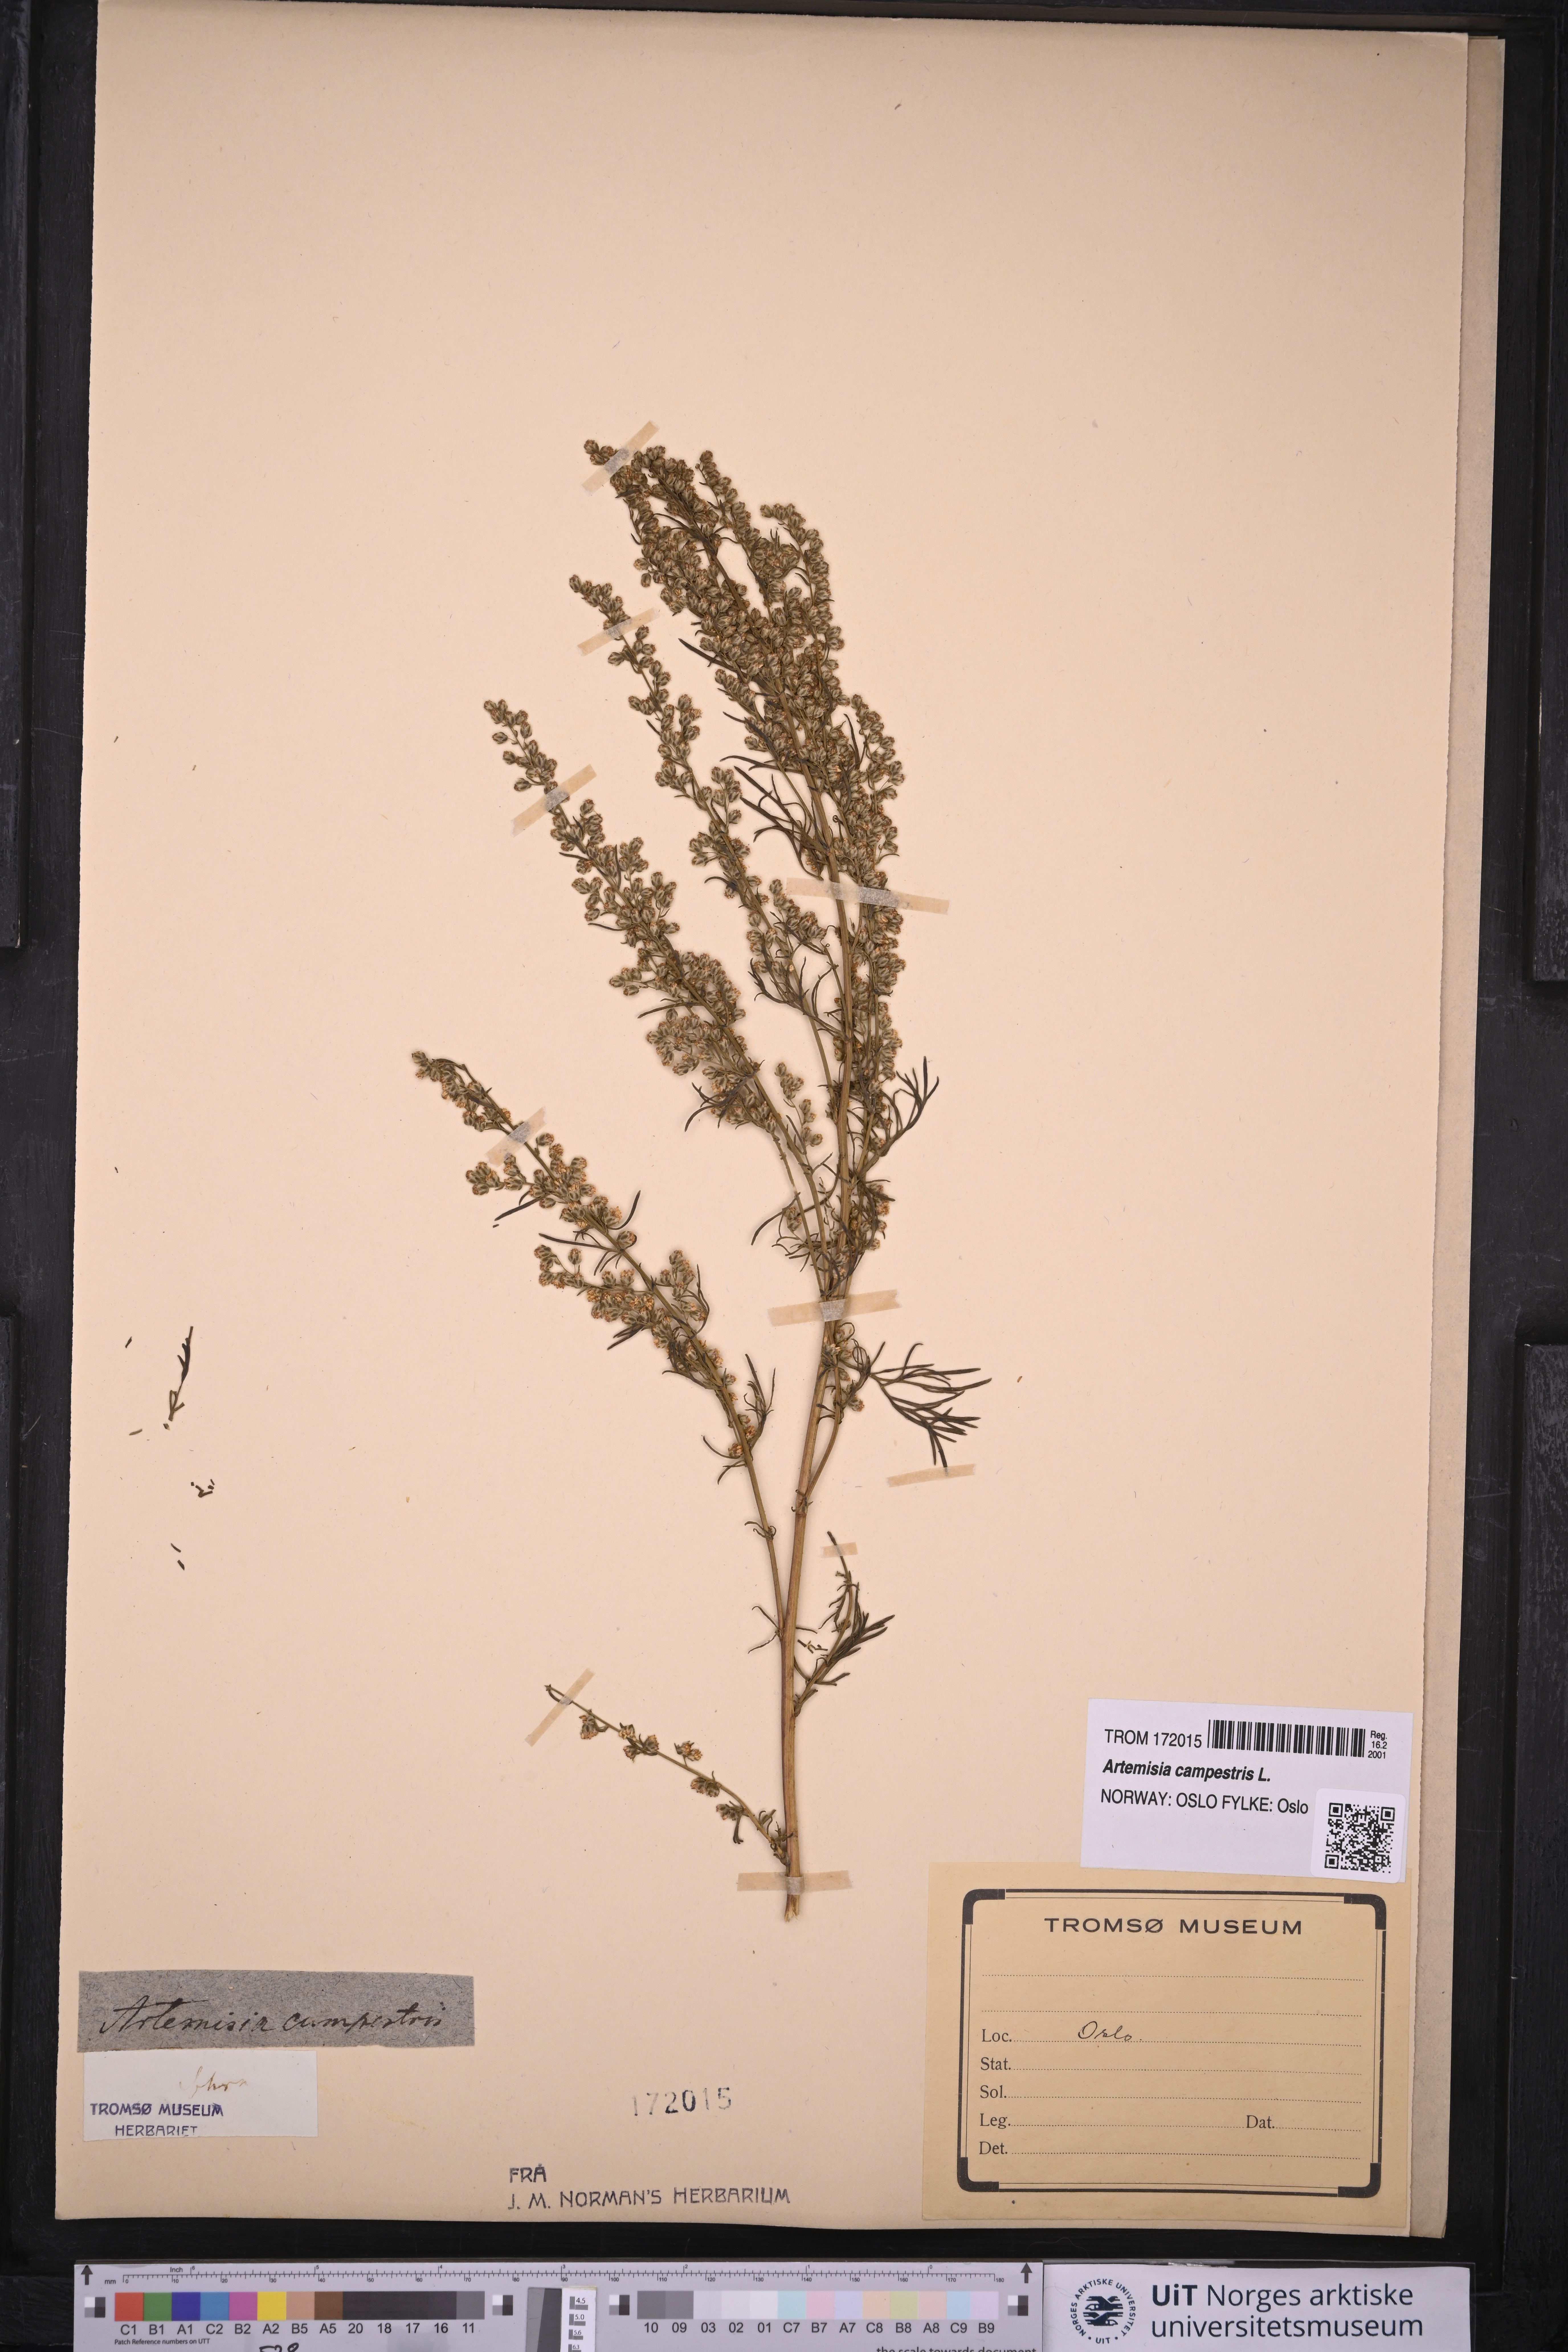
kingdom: Plantae
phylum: Tracheophyta
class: Magnoliopsida
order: Asterales
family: Asteraceae
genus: Artemisia
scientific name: Artemisia campestris
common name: Field wormwood
